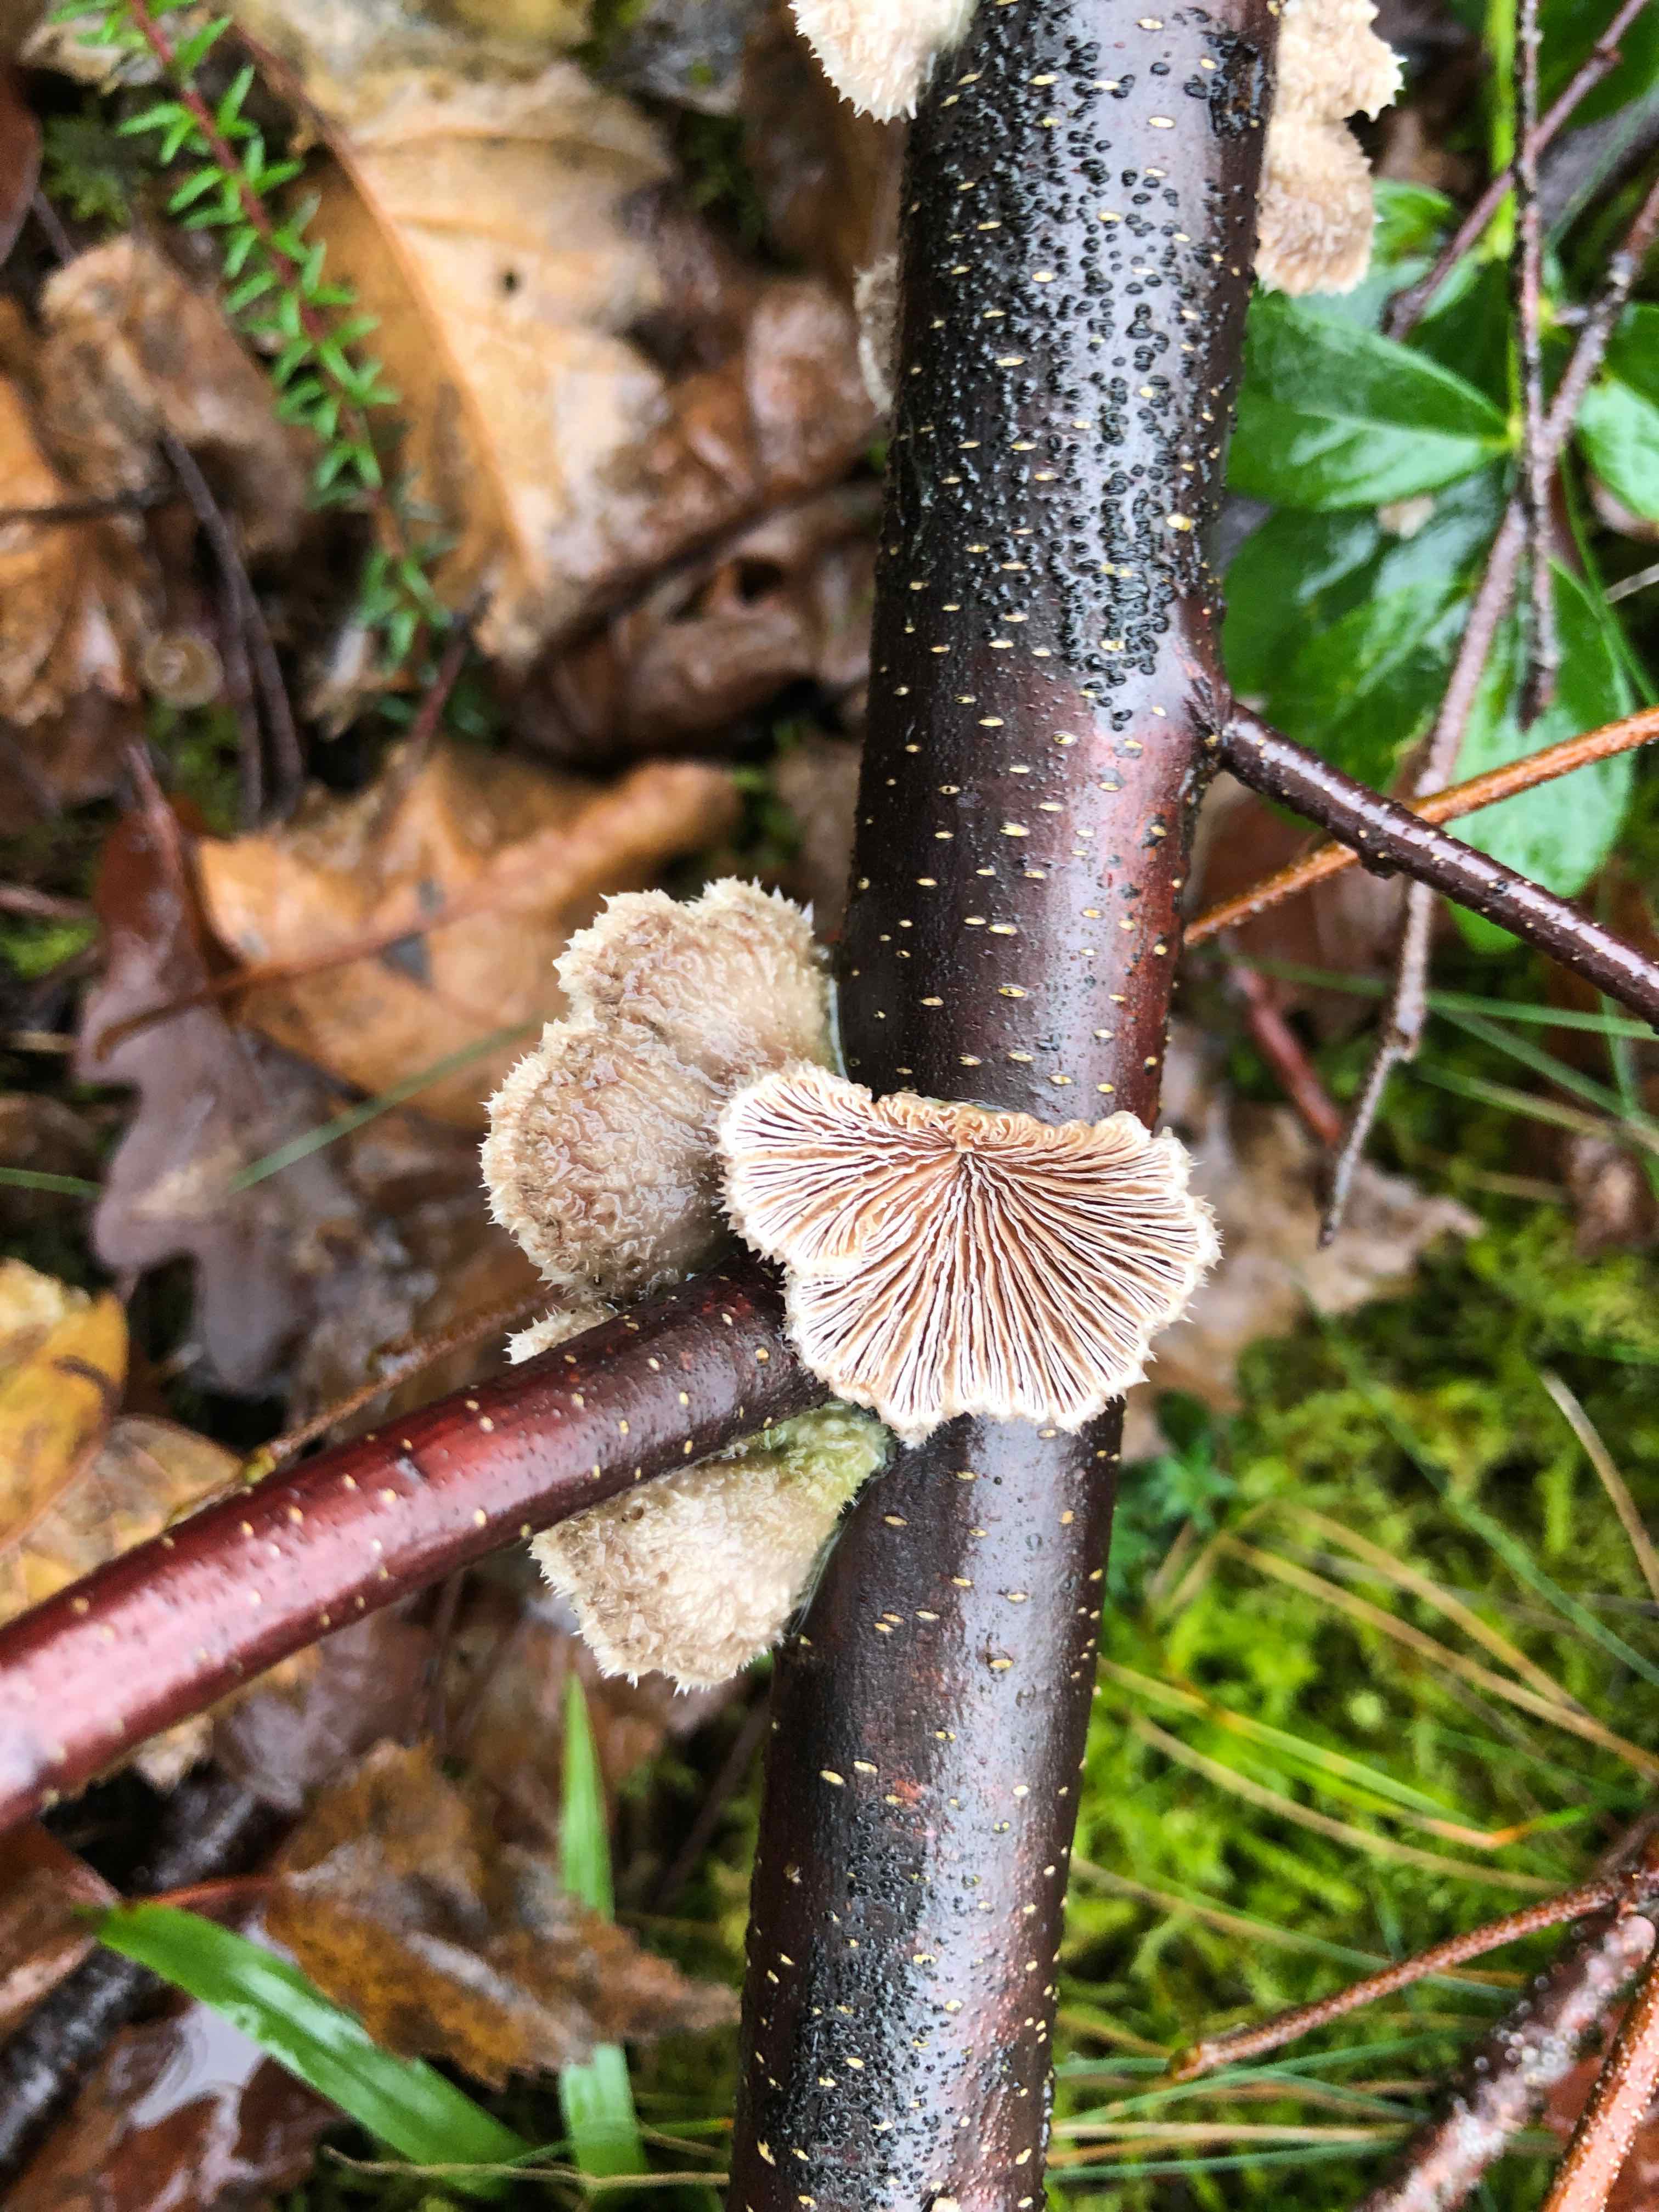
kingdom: Fungi
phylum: Basidiomycota
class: Agaricomycetes
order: Agaricales
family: Schizophyllaceae
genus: Schizophyllum
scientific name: Schizophyllum commune
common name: kløvblad
